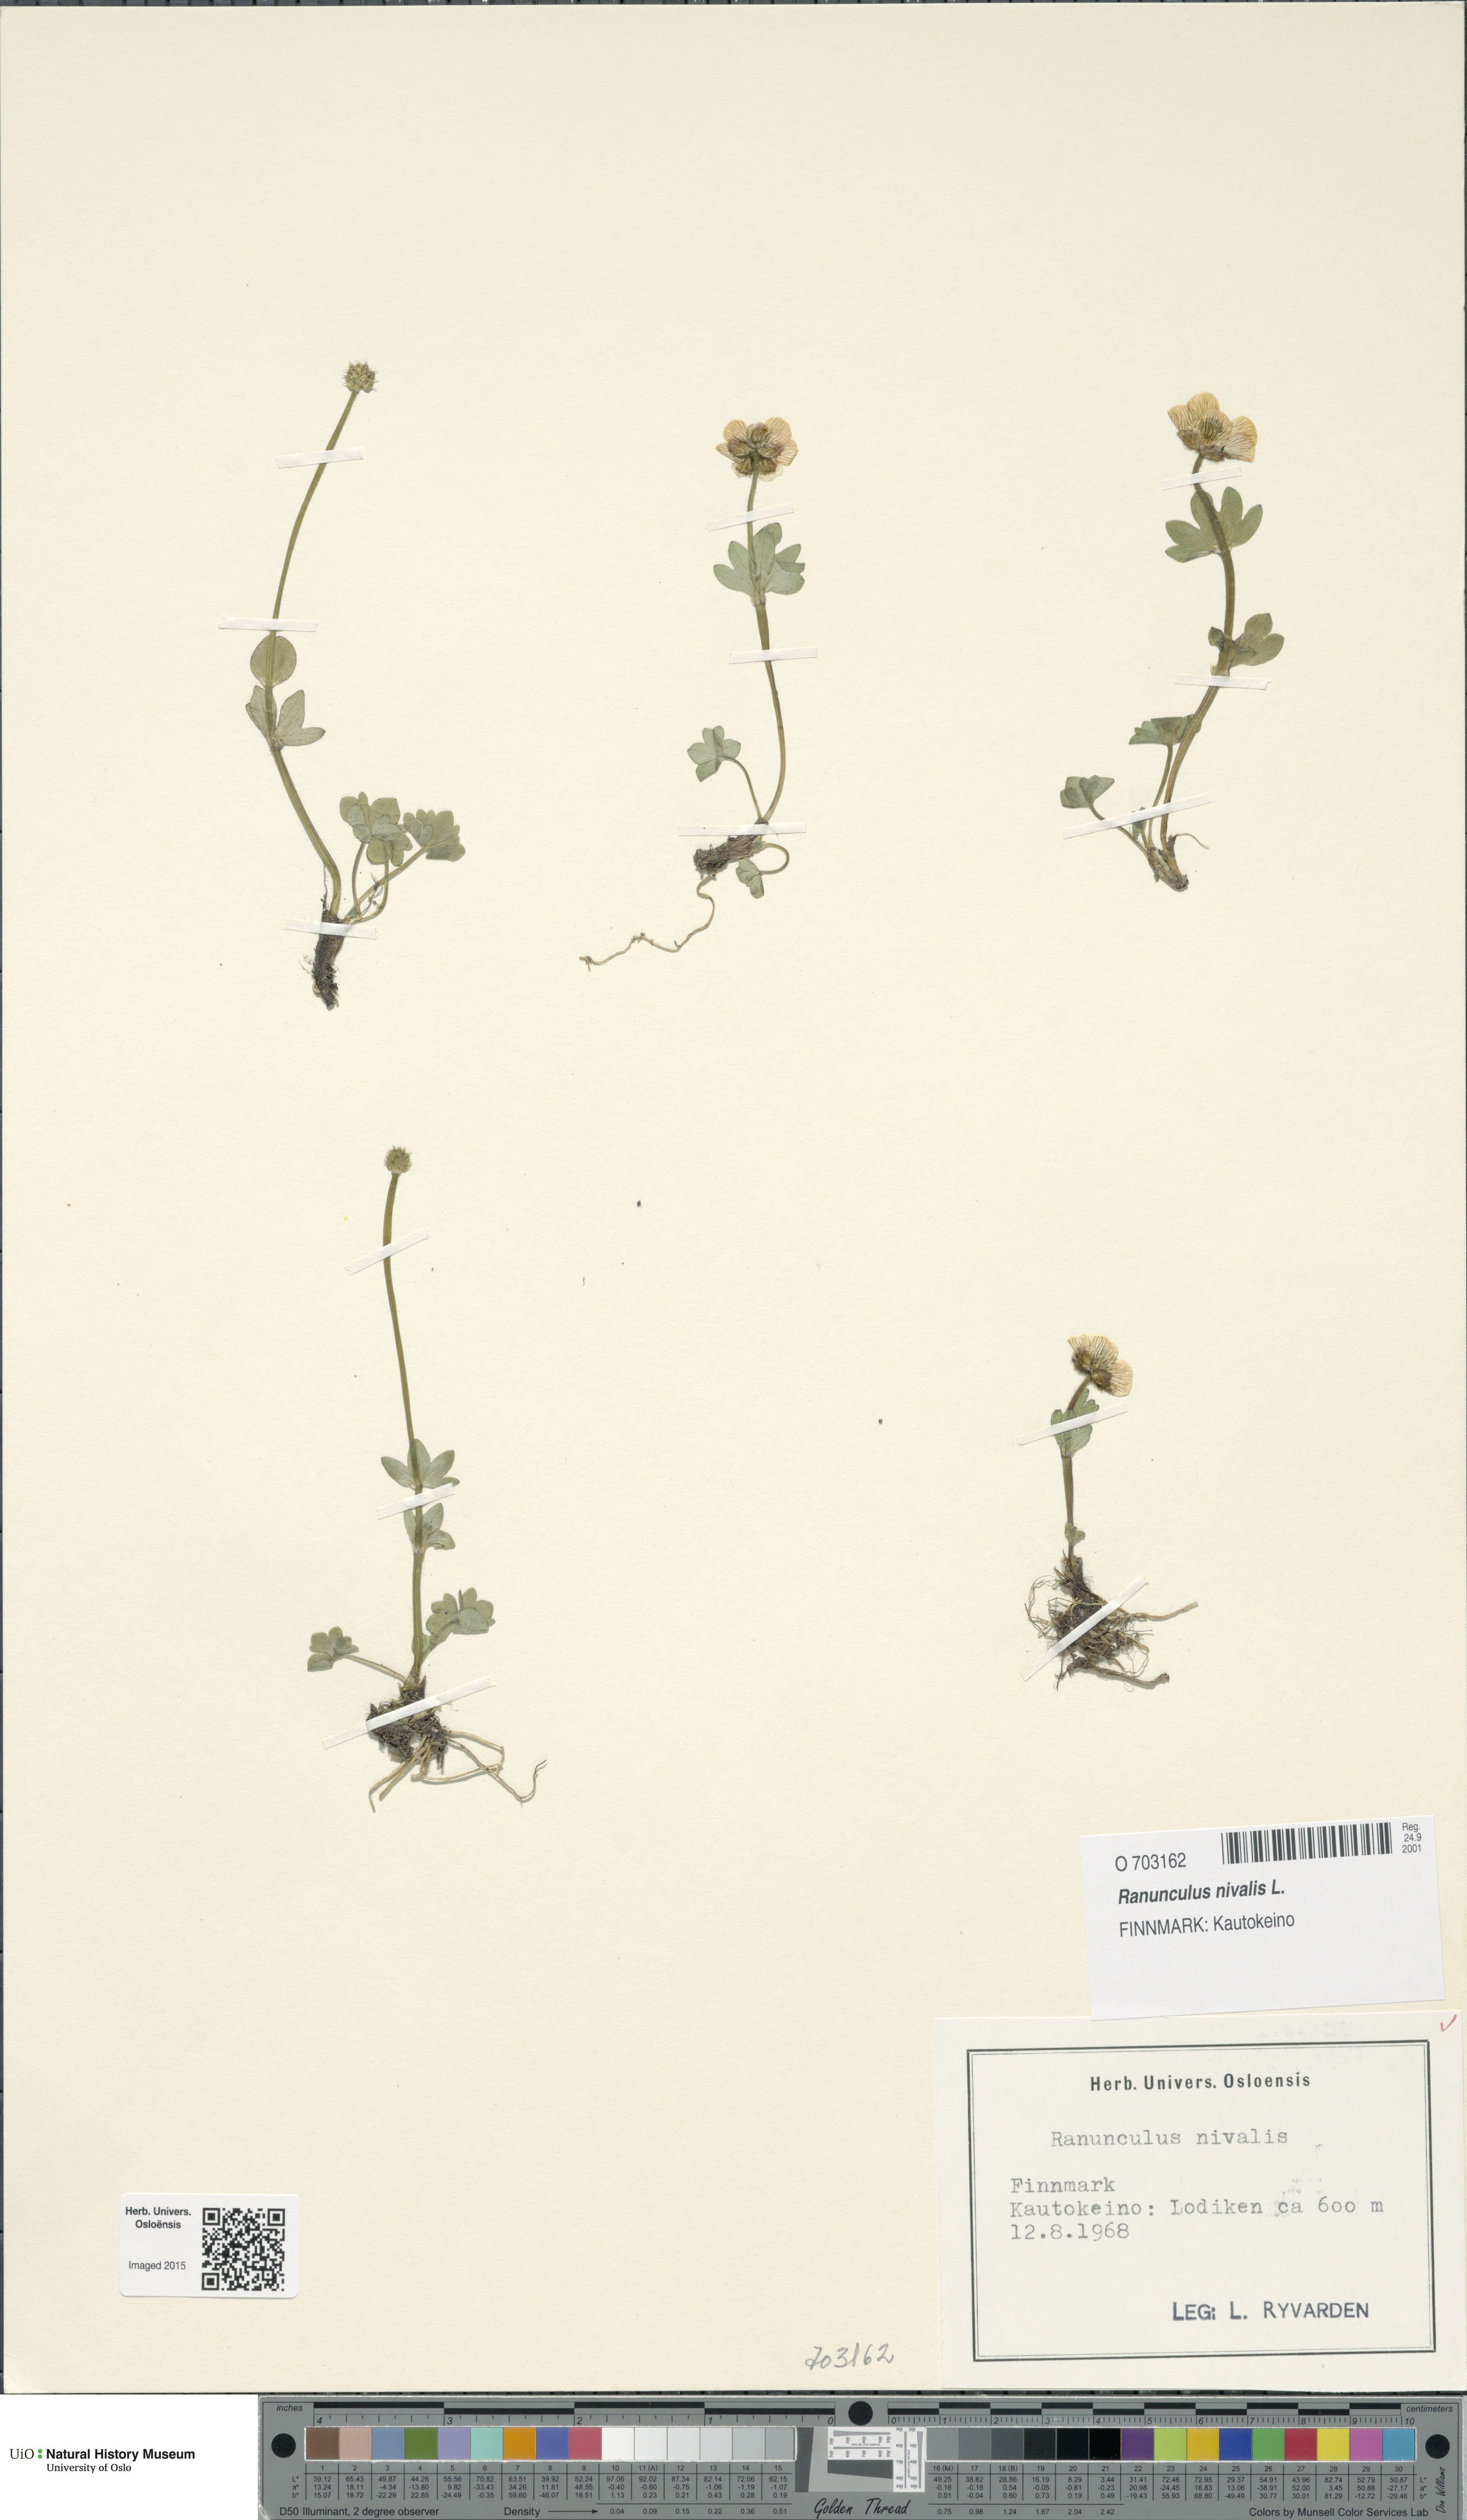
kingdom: Plantae
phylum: Tracheophyta
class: Magnoliopsida
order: Ranunculales
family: Ranunculaceae
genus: Ranunculus
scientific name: Ranunculus nivalis
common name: Snow buttercup
